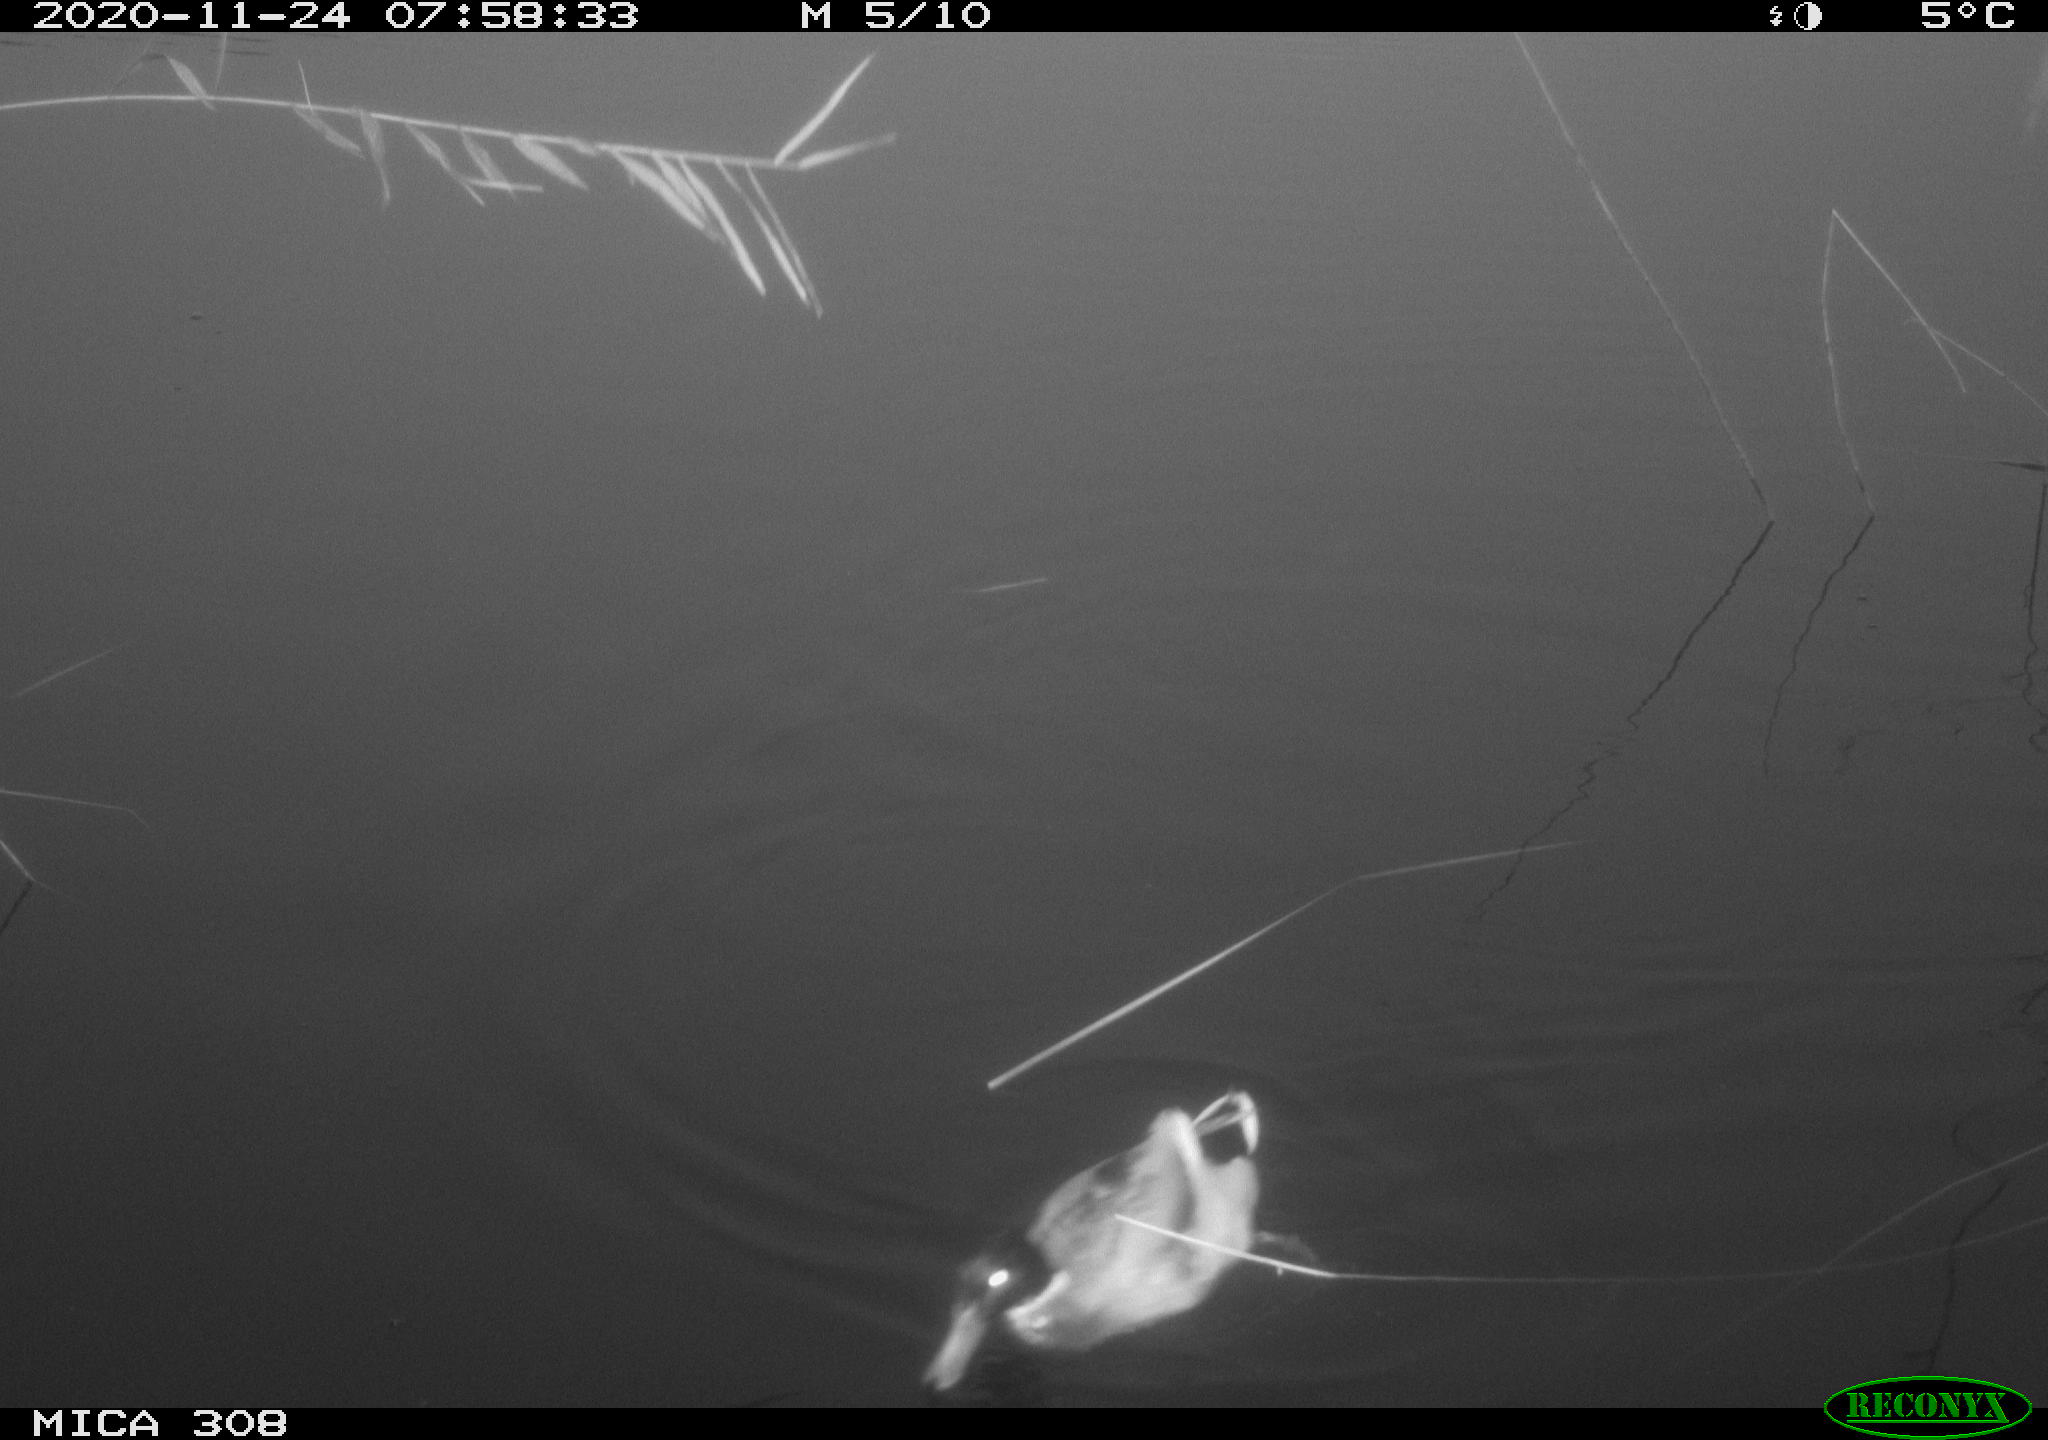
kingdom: Animalia
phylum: Chordata
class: Aves
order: Anseriformes
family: Anatidae
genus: Anas
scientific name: Anas platyrhynchos
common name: Mallard
